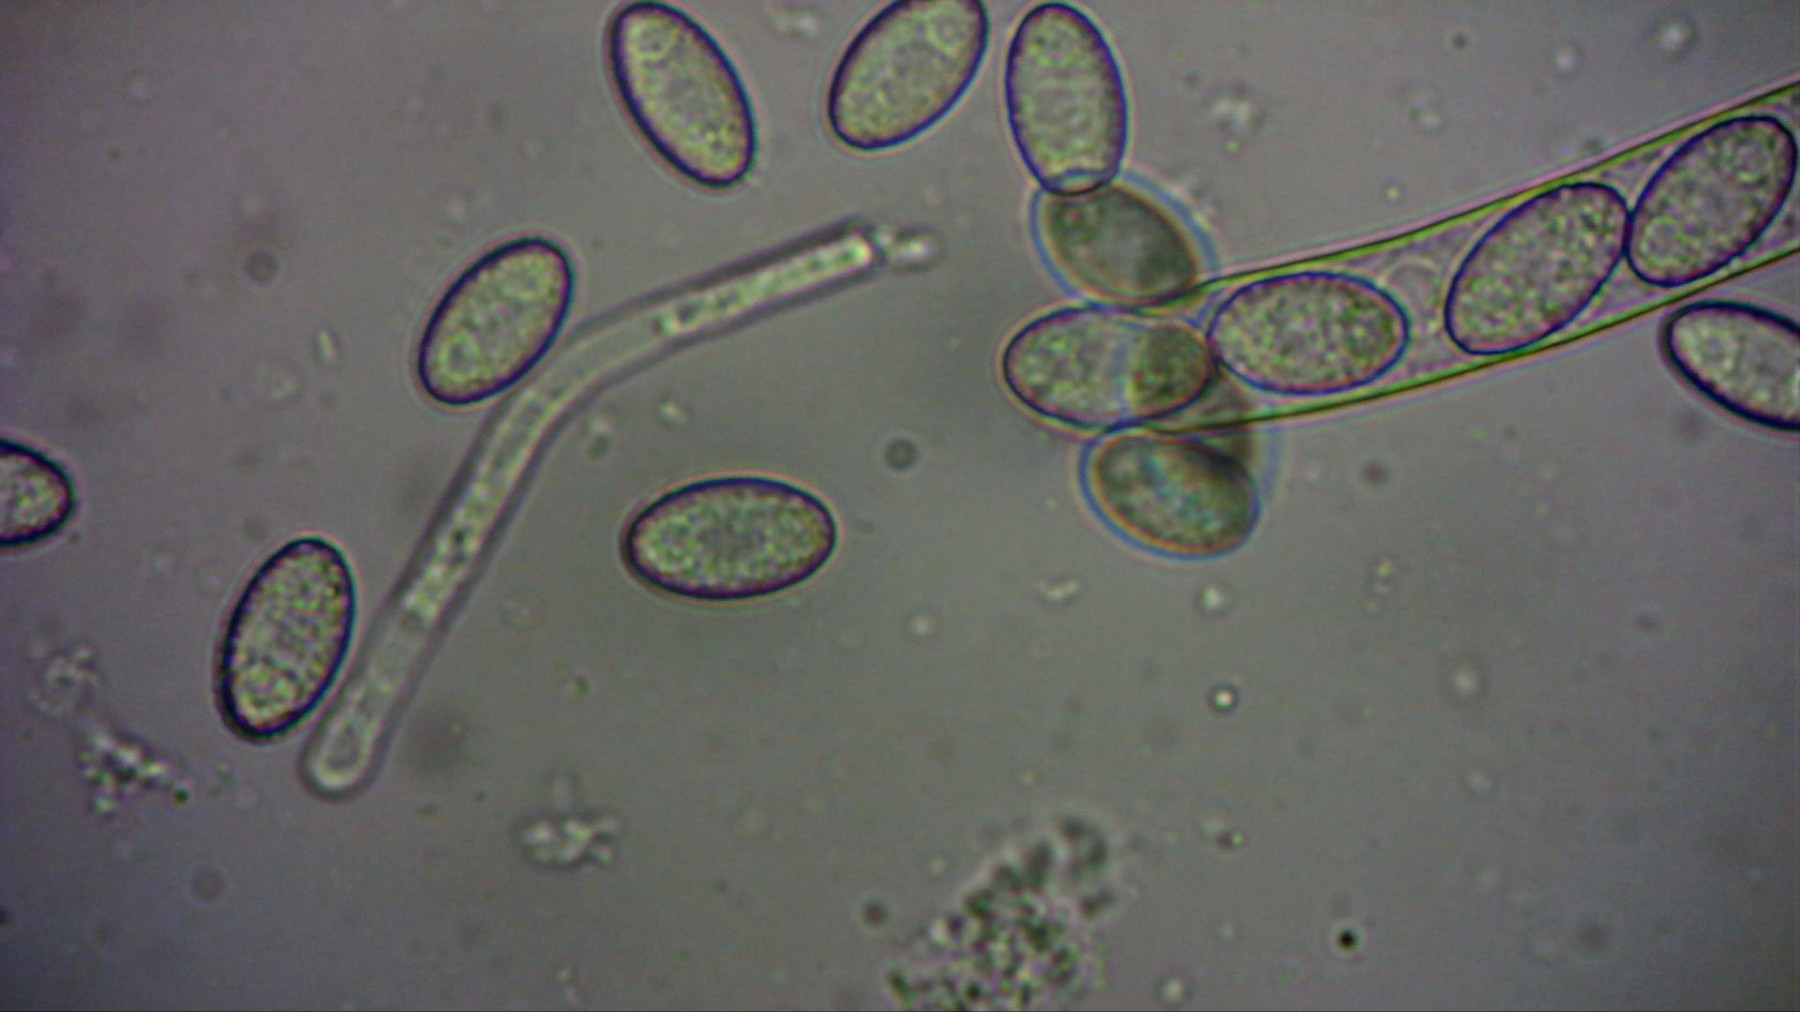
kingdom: Fungi
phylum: Ascomycota
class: Pezizomycetes
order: Pezizales
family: Pezizaceae
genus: Peziza
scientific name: Peziza
